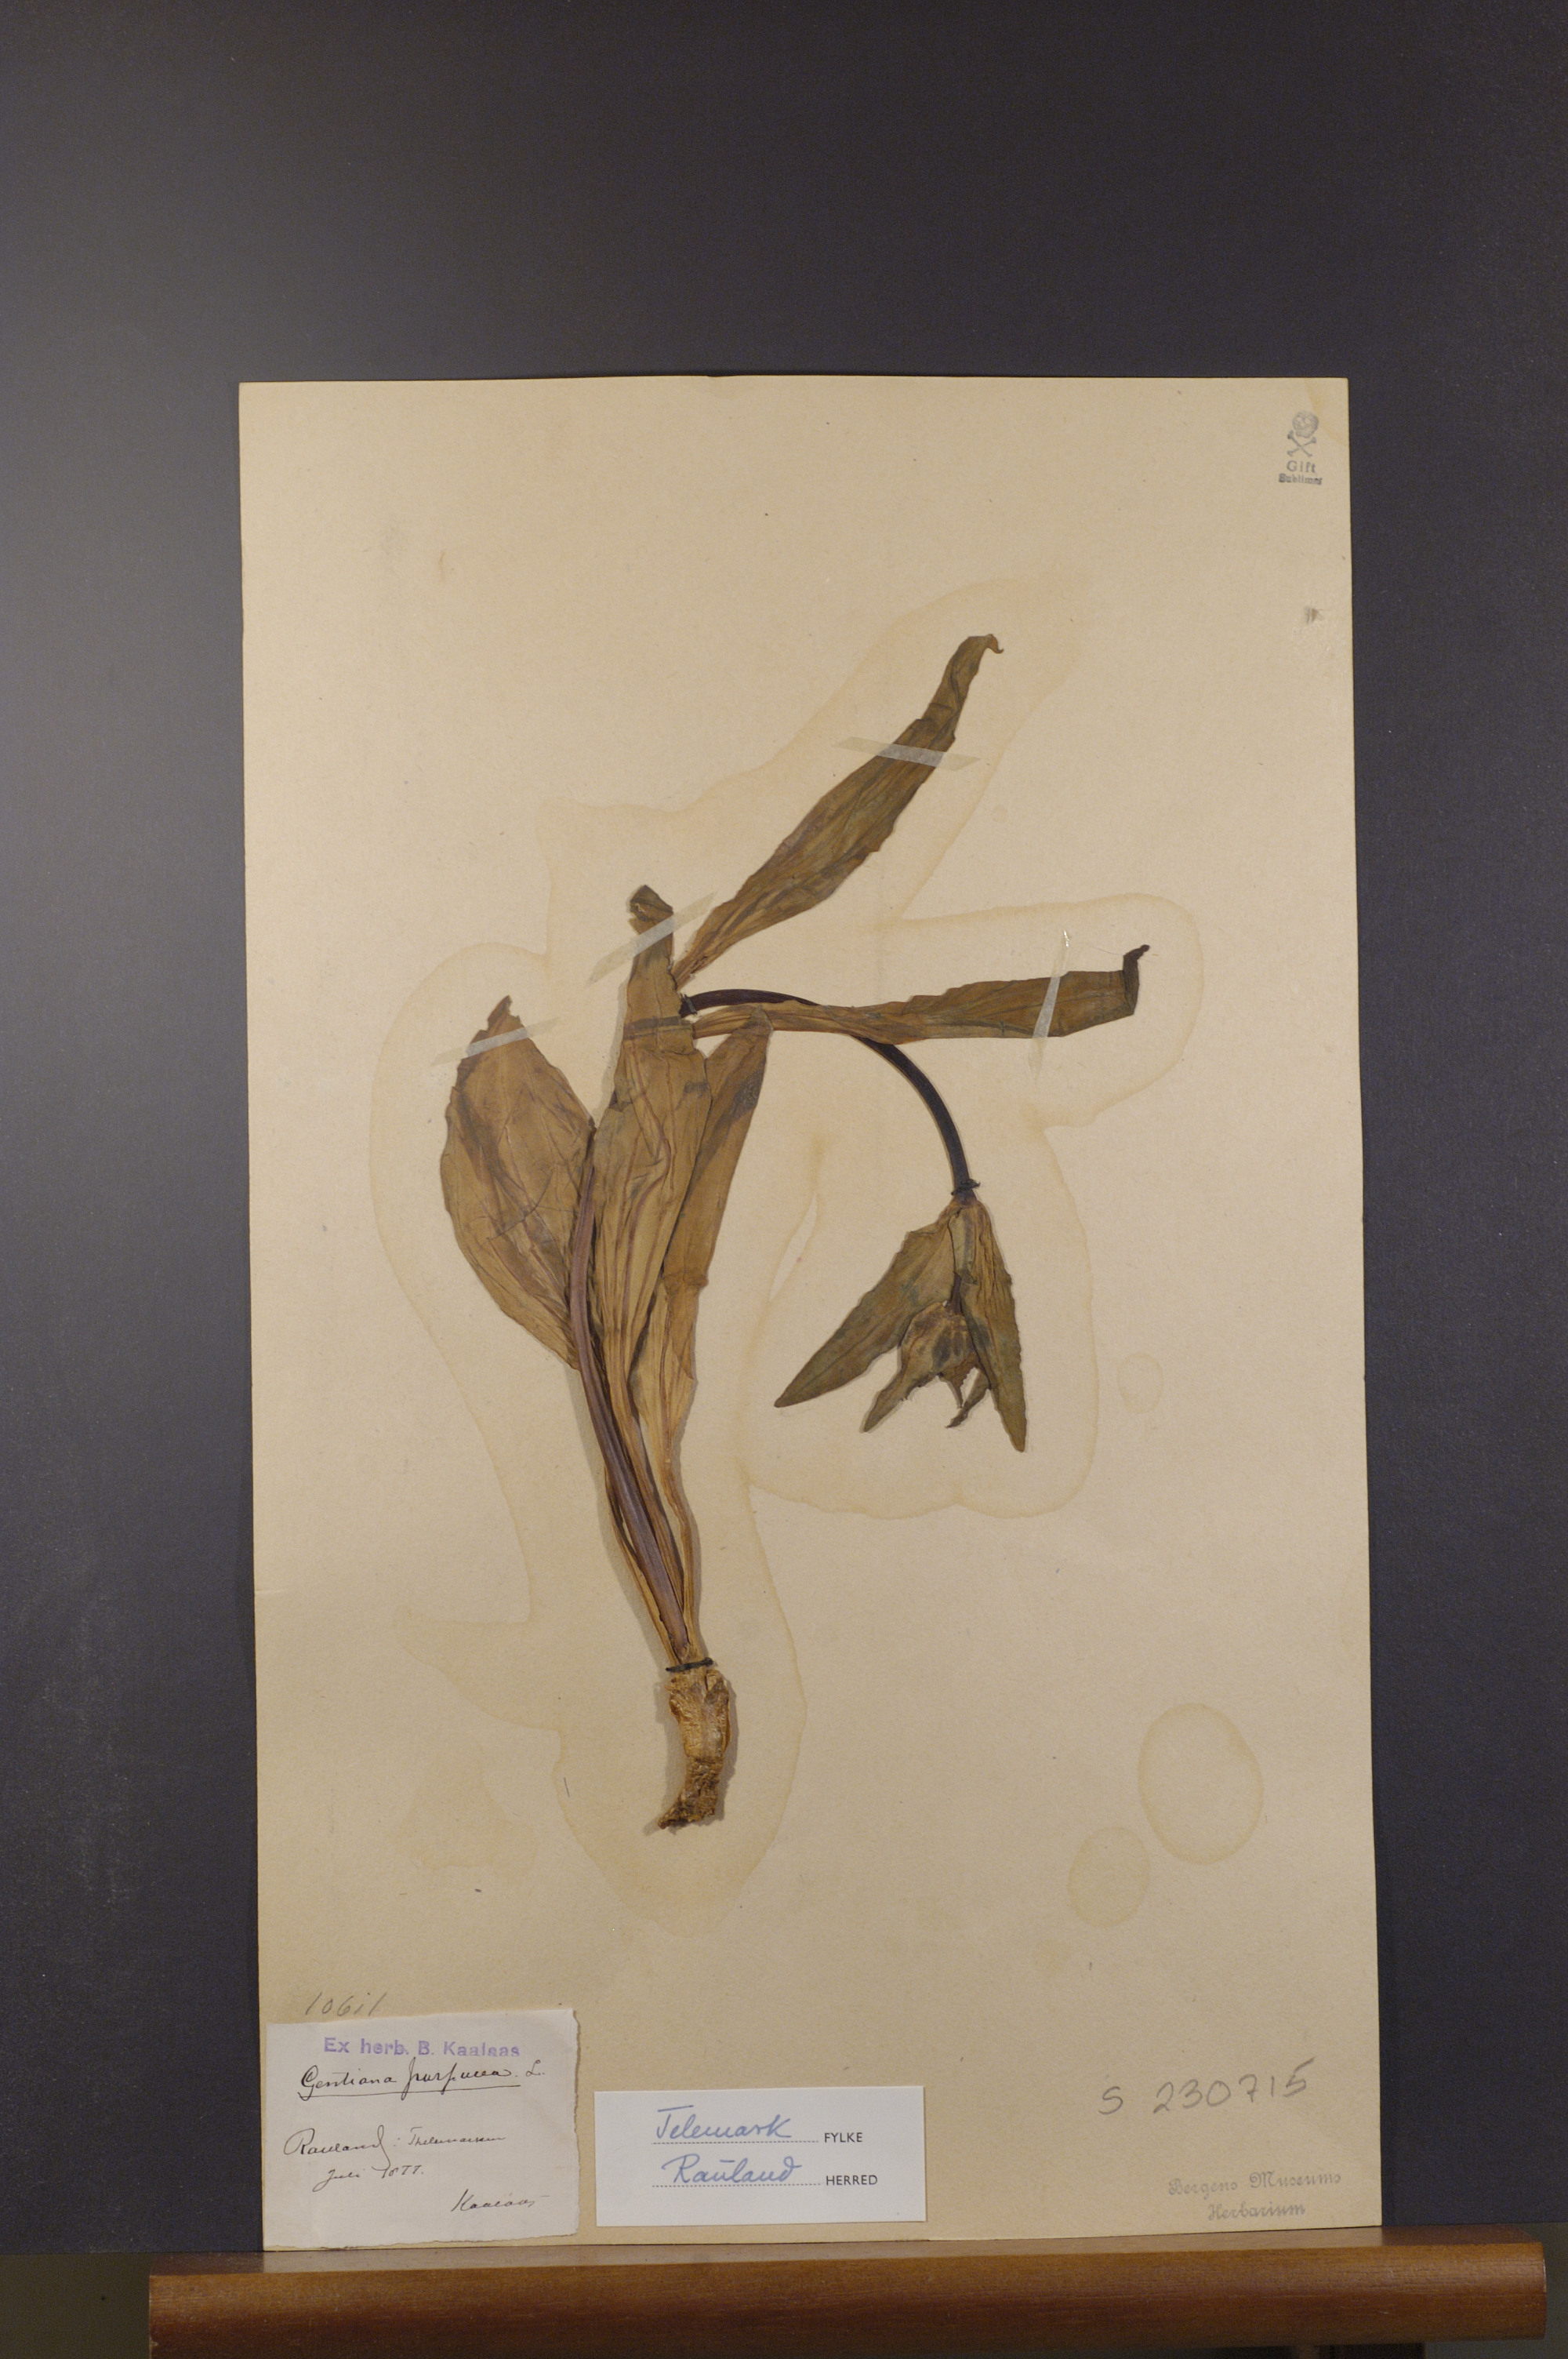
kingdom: Plantae
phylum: Tracheophyta
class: Magnoliopsida
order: Gentianales
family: Gentianaceae
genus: Gentiana
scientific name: Gentiana purpurea
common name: Purple gentian
